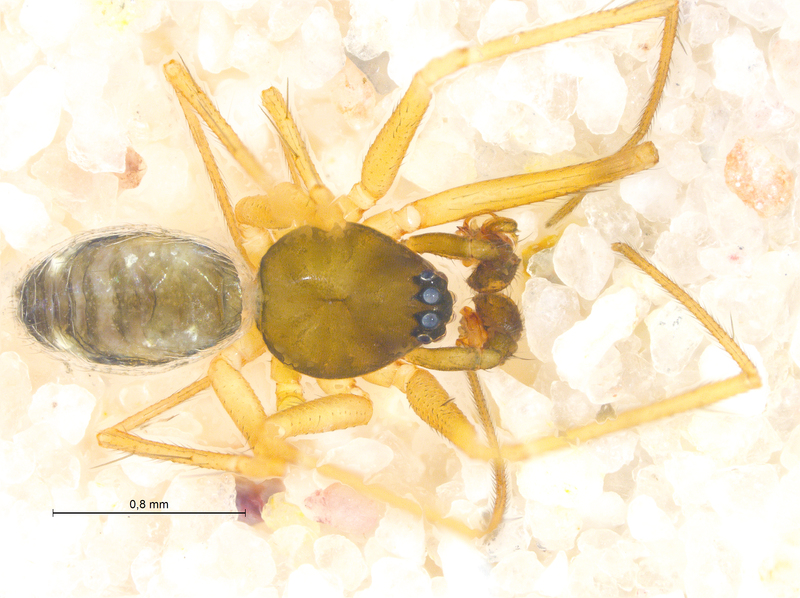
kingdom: Animalia
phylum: Arthropoda
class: Arachnida
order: Araneae
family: Linyphiidae
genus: Tenuiphantes
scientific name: Tenuiphantes flavipes
